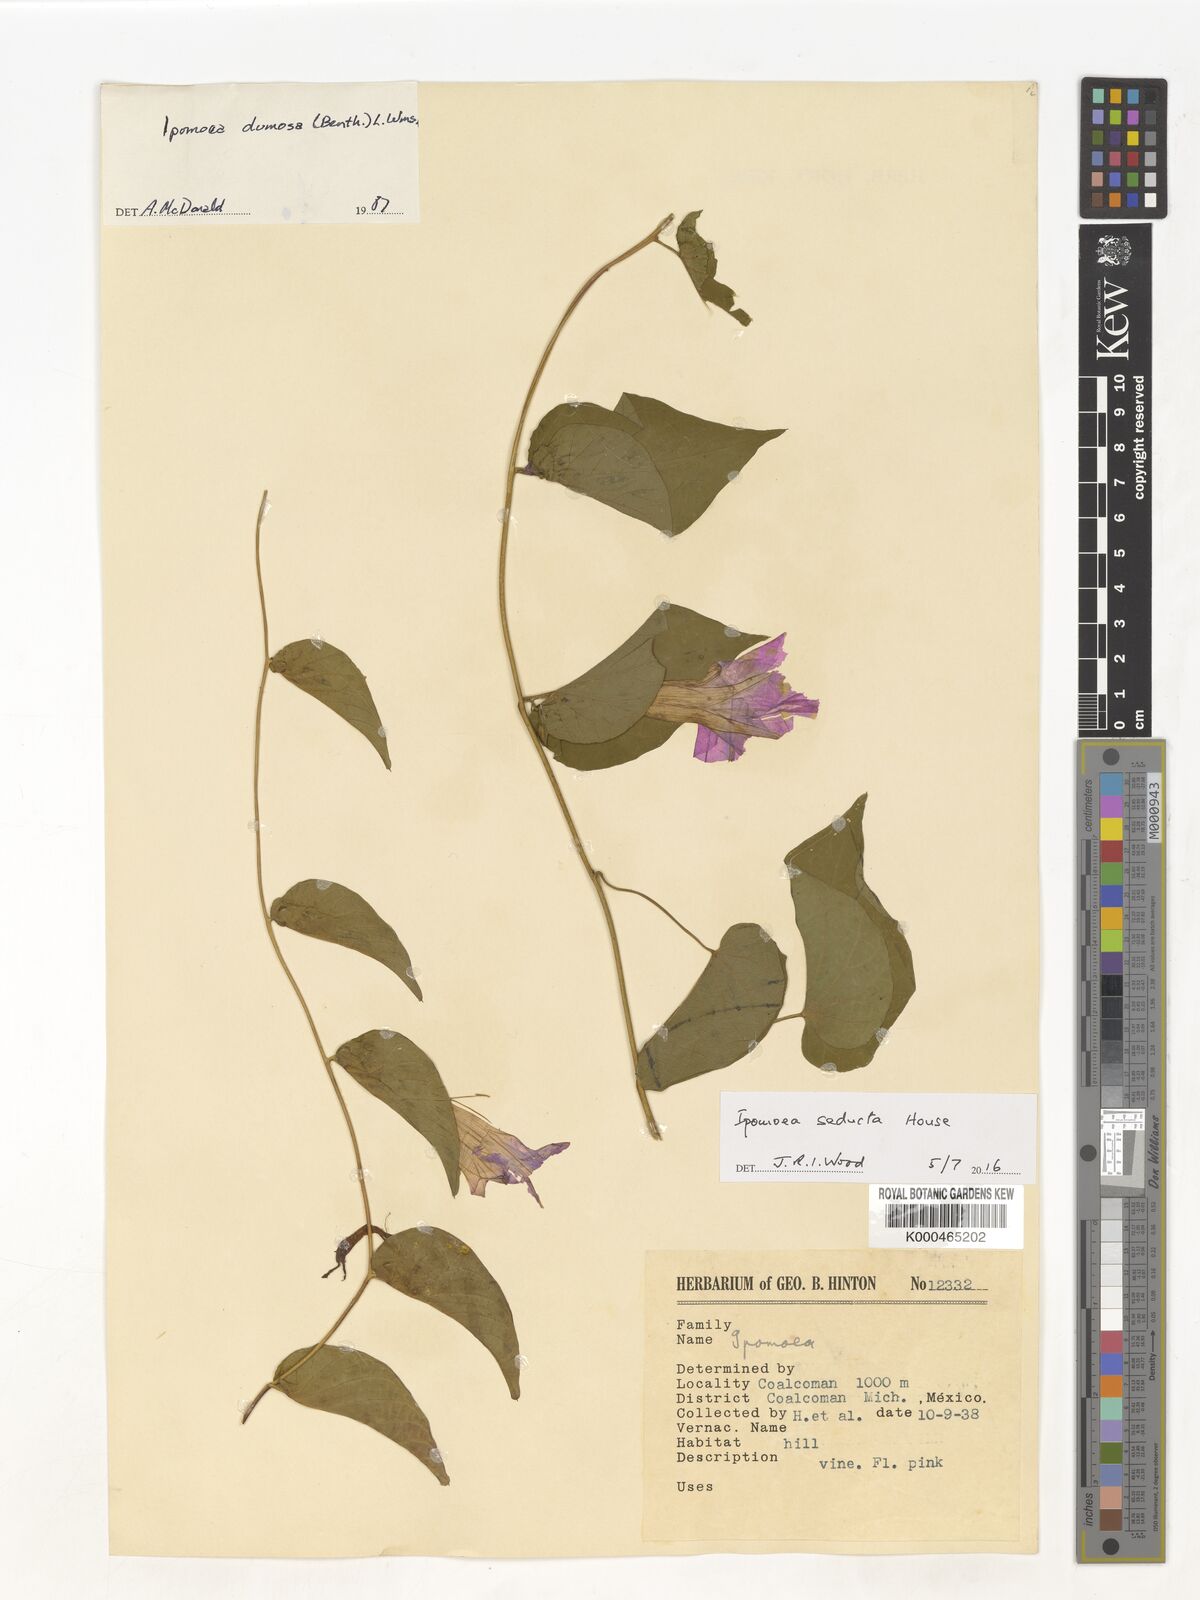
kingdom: Plantae
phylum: Tracheophyta
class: Magnoliopsida
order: Solanales
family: Convolvulaceae
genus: Ipomoea
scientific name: Ipomoea dumosa
